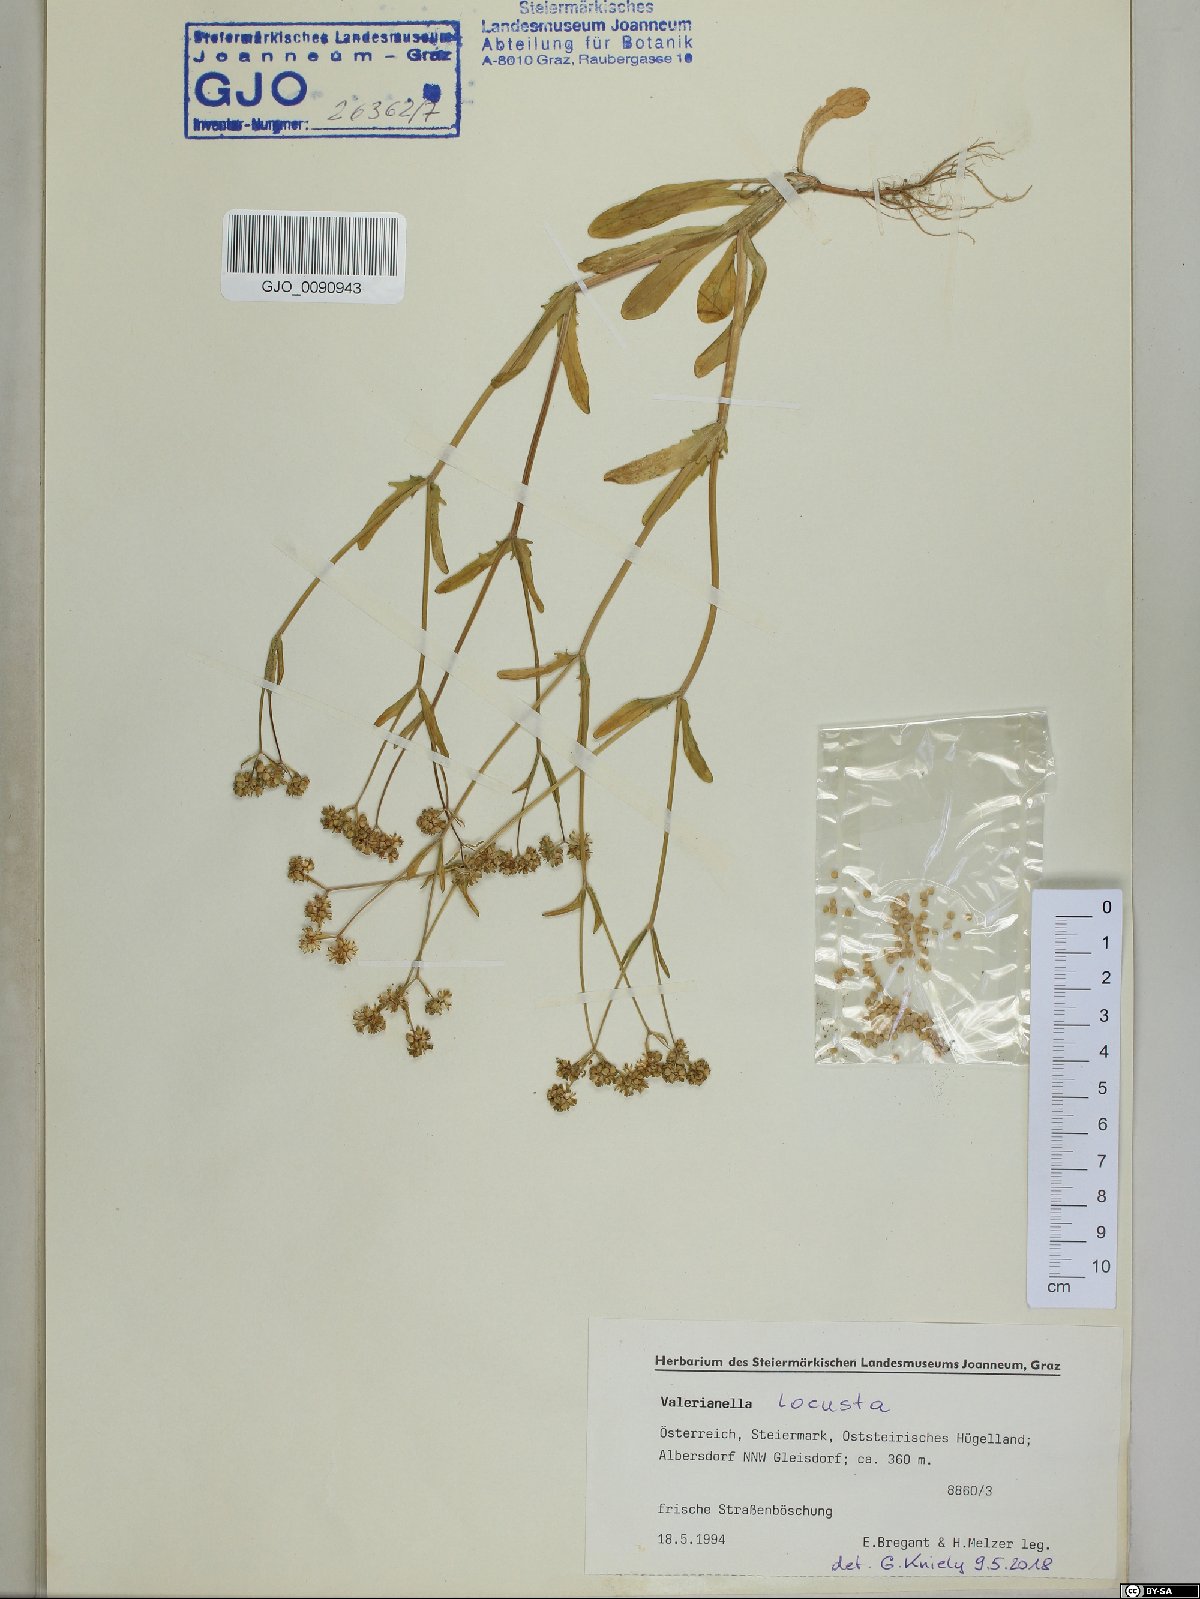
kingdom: Plantae
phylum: Tracheophyta
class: Magnoliopsida
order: Dipsacales
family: Caprifoliaceae
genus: Valerianella
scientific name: Valerianella locusta
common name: Common cornsalad
